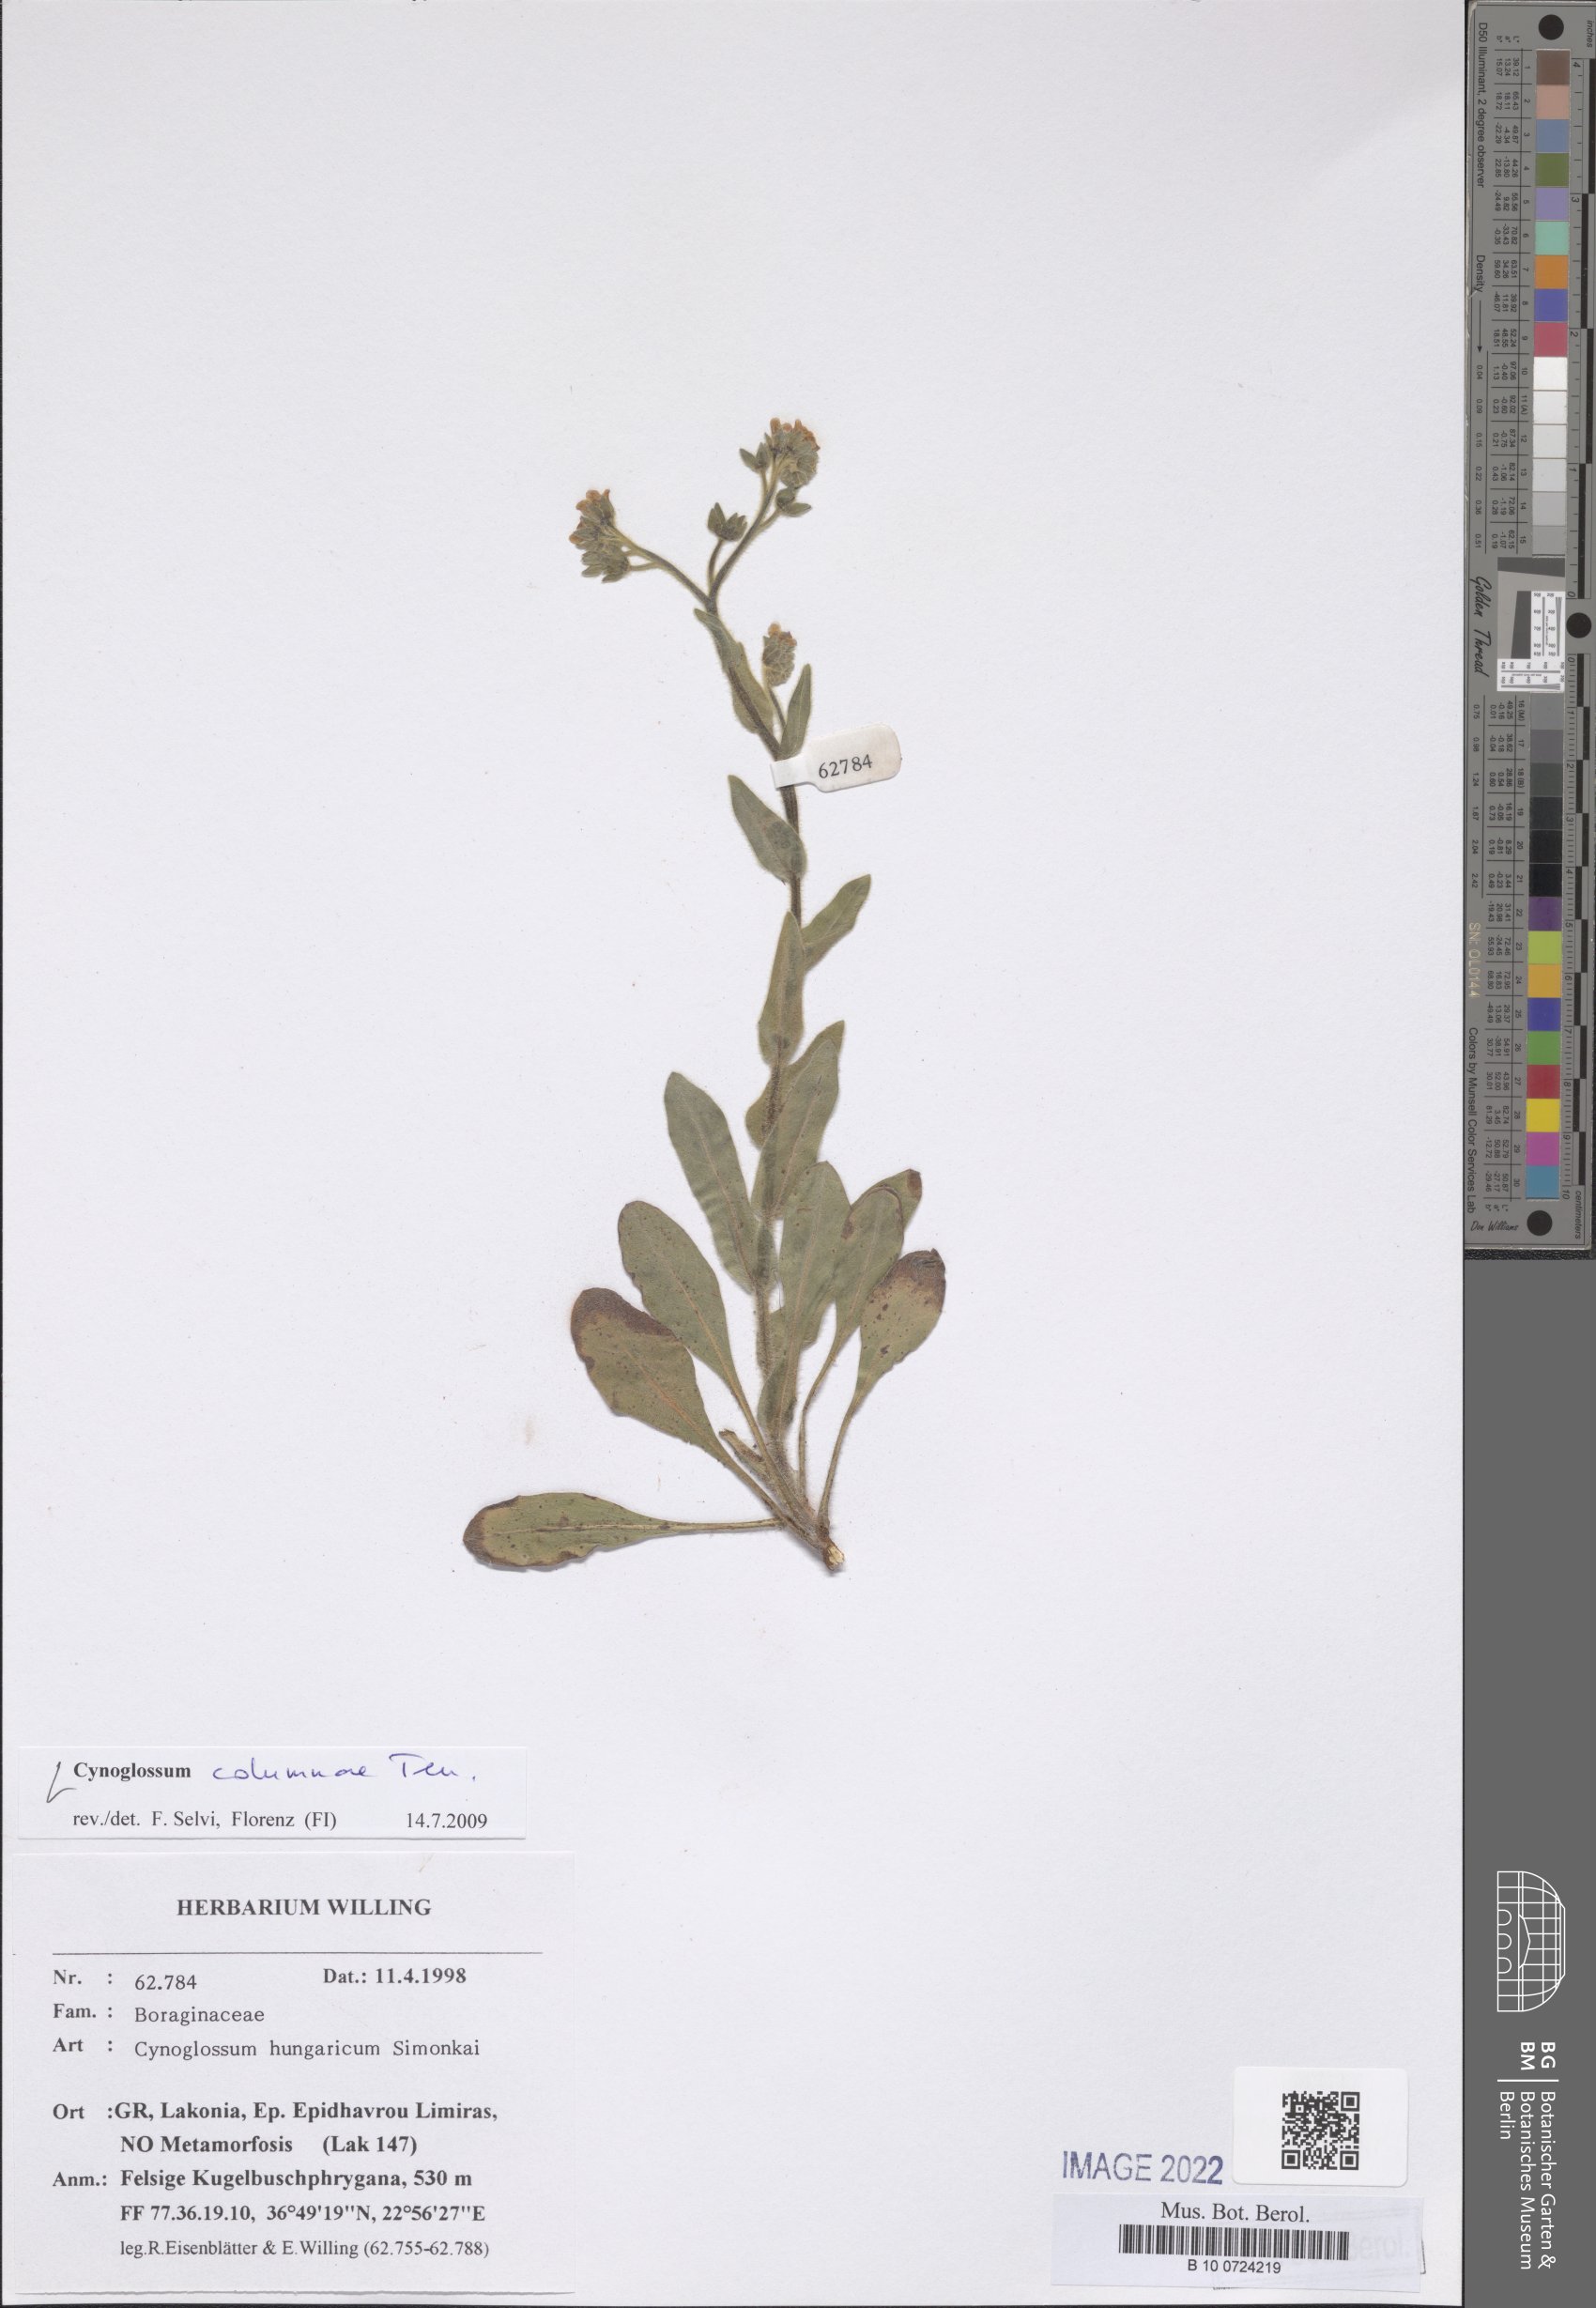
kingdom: Plantae
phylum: Tracheophyta
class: Magnoliopsida
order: Boraginales
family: Boraginaceae
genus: Rindera
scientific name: Rindera columnae
